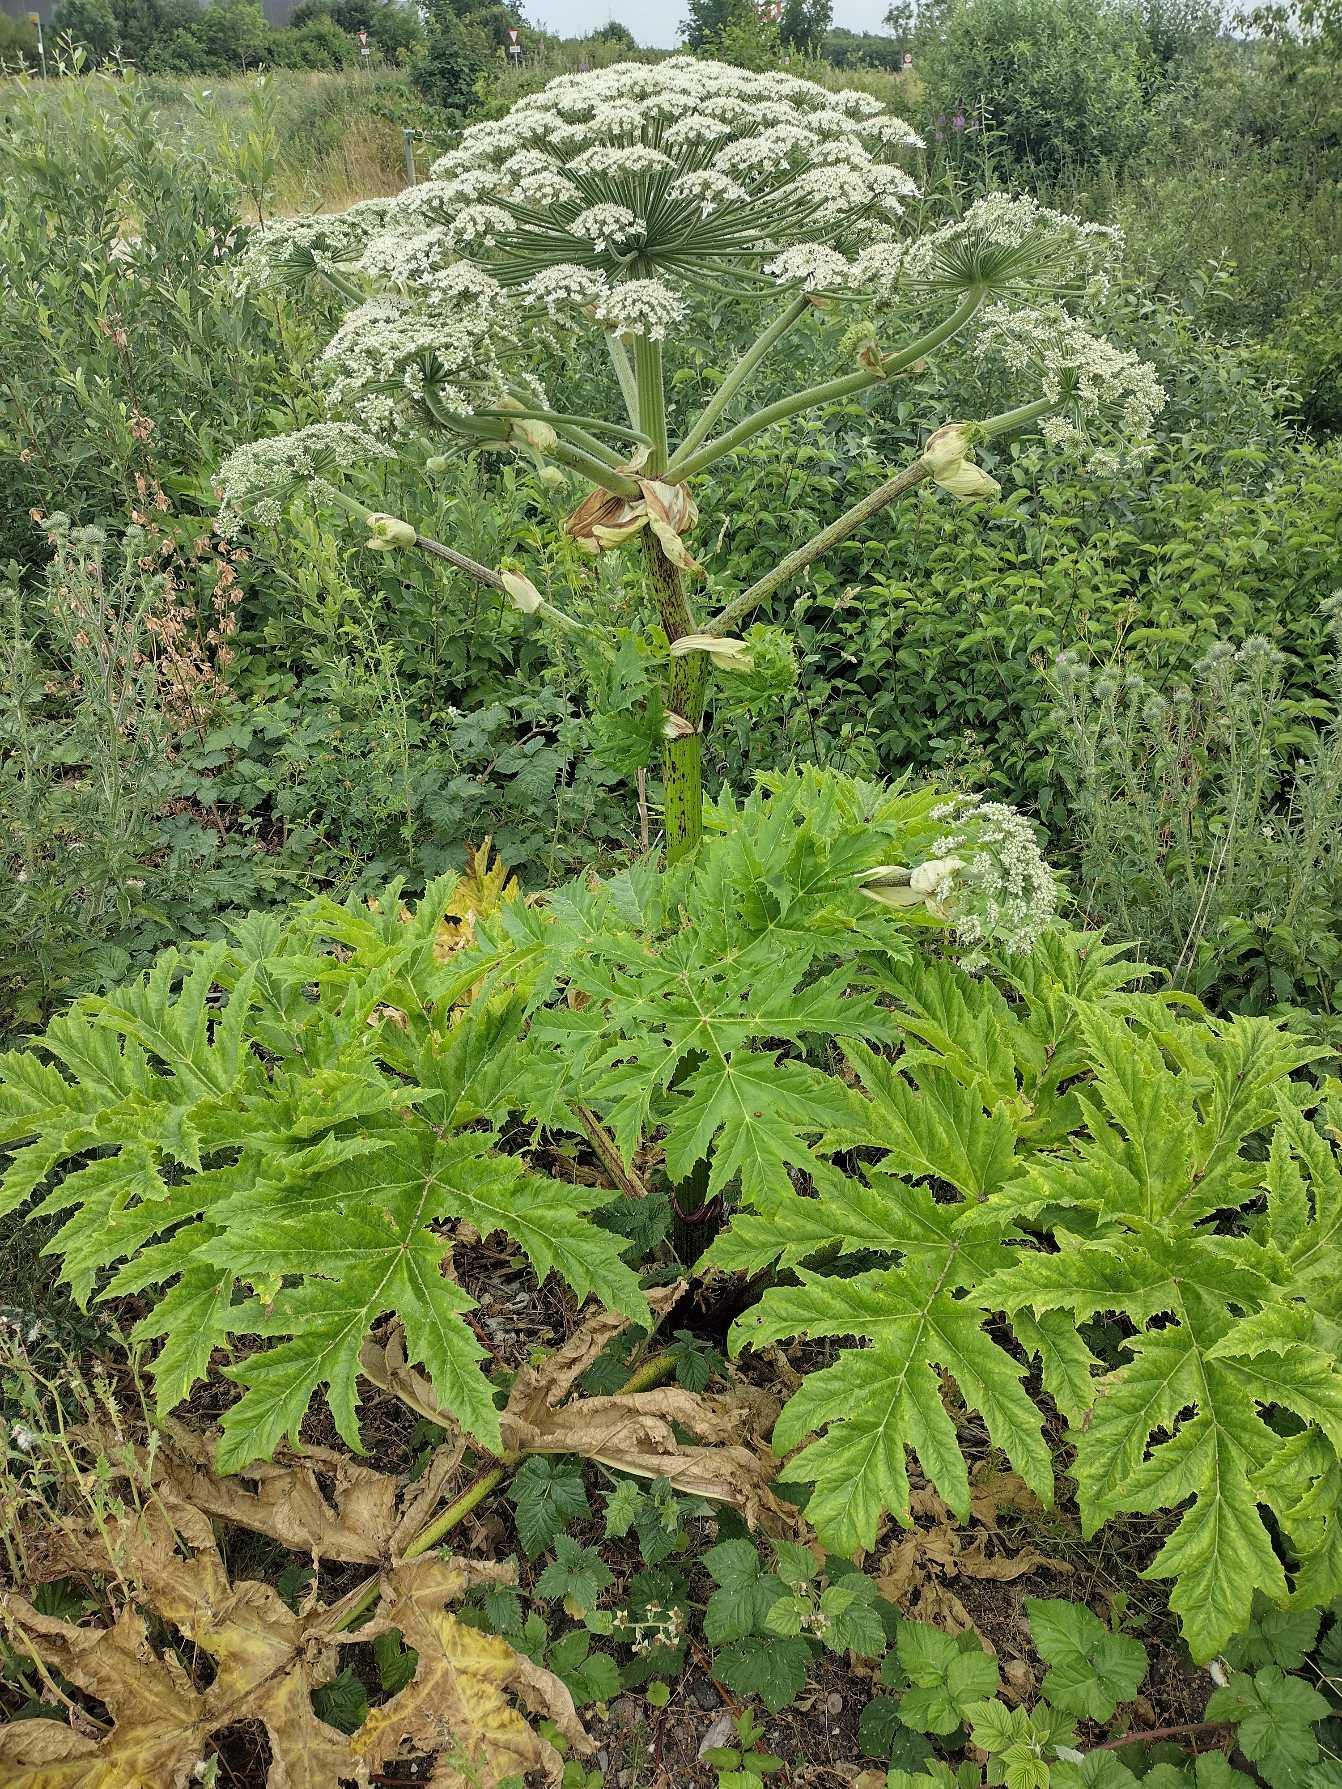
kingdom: Plantae
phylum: Tracheophyta
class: Magnoliopsida
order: Apiales
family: Apiaceae
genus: Heracleum
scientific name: Heracleum mantegazzianum
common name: Kæmpe-bjørneklo
